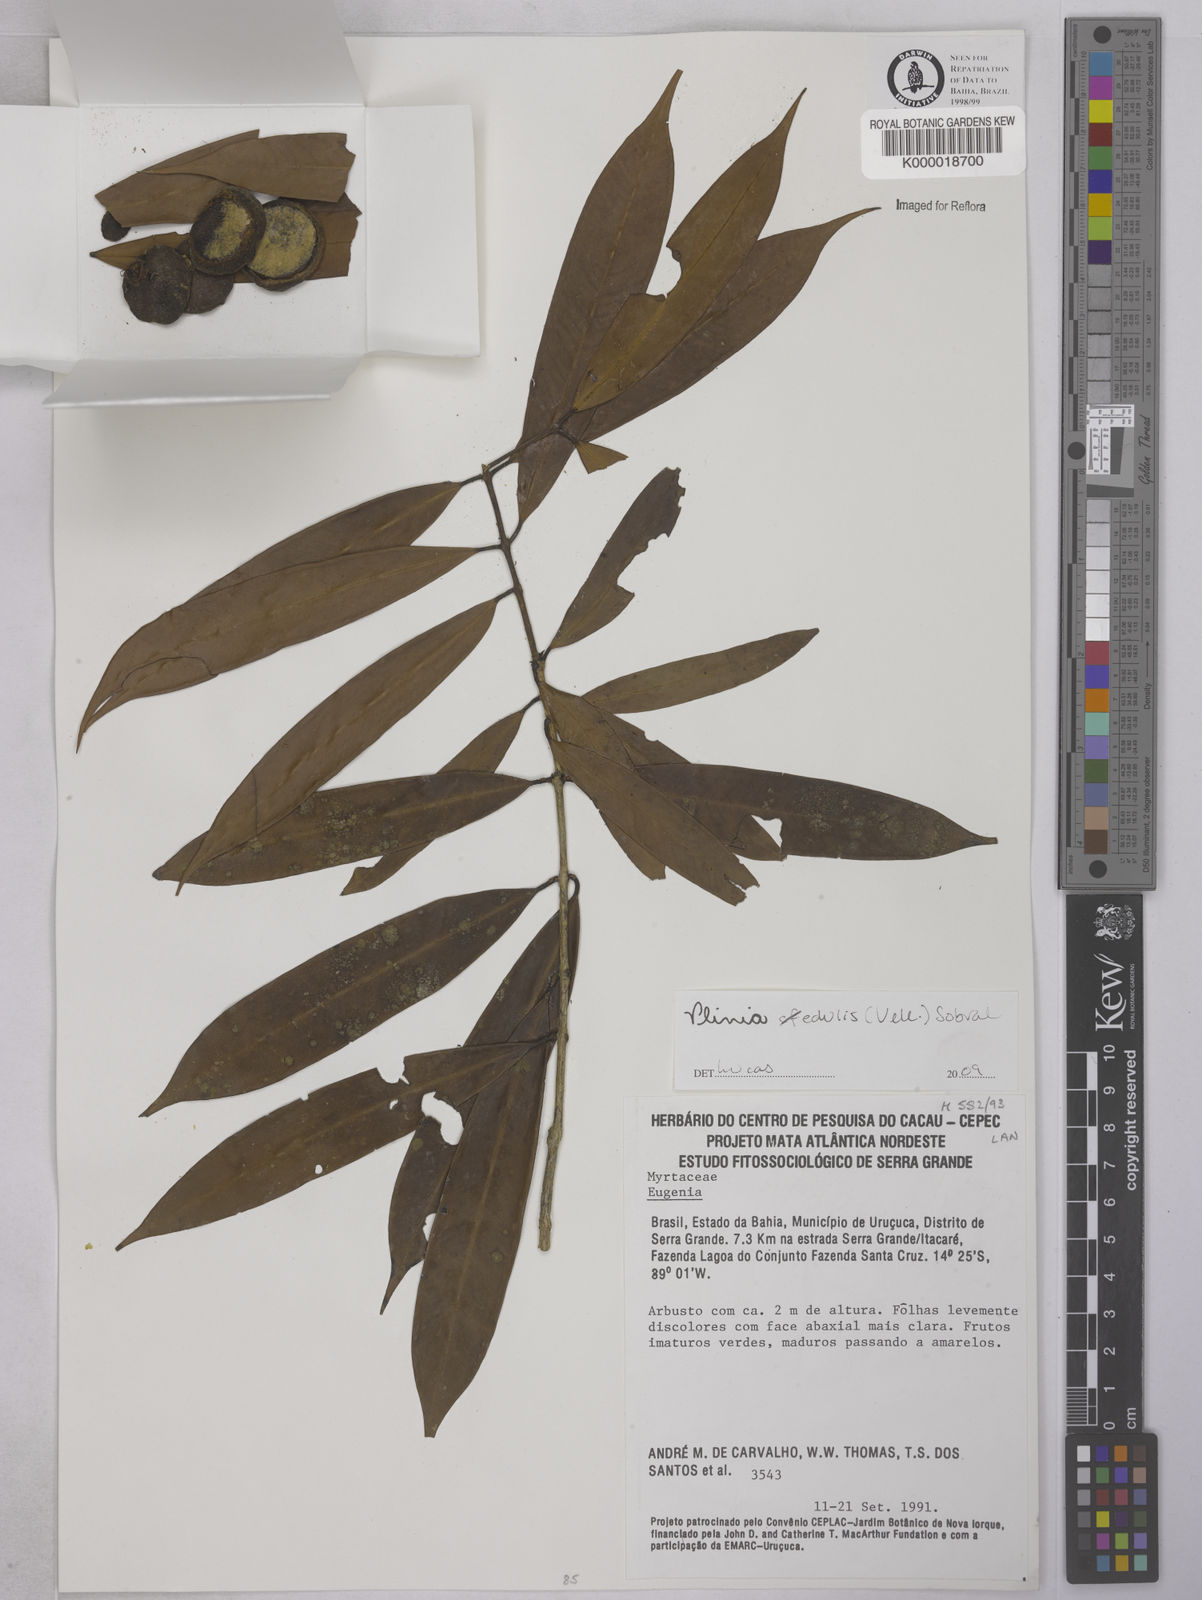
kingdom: Plantae
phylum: Tracheophyta
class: Magnoliopsida
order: Myrtales
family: Myrtaceae
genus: Plinia
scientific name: Plinia longiacuminata
